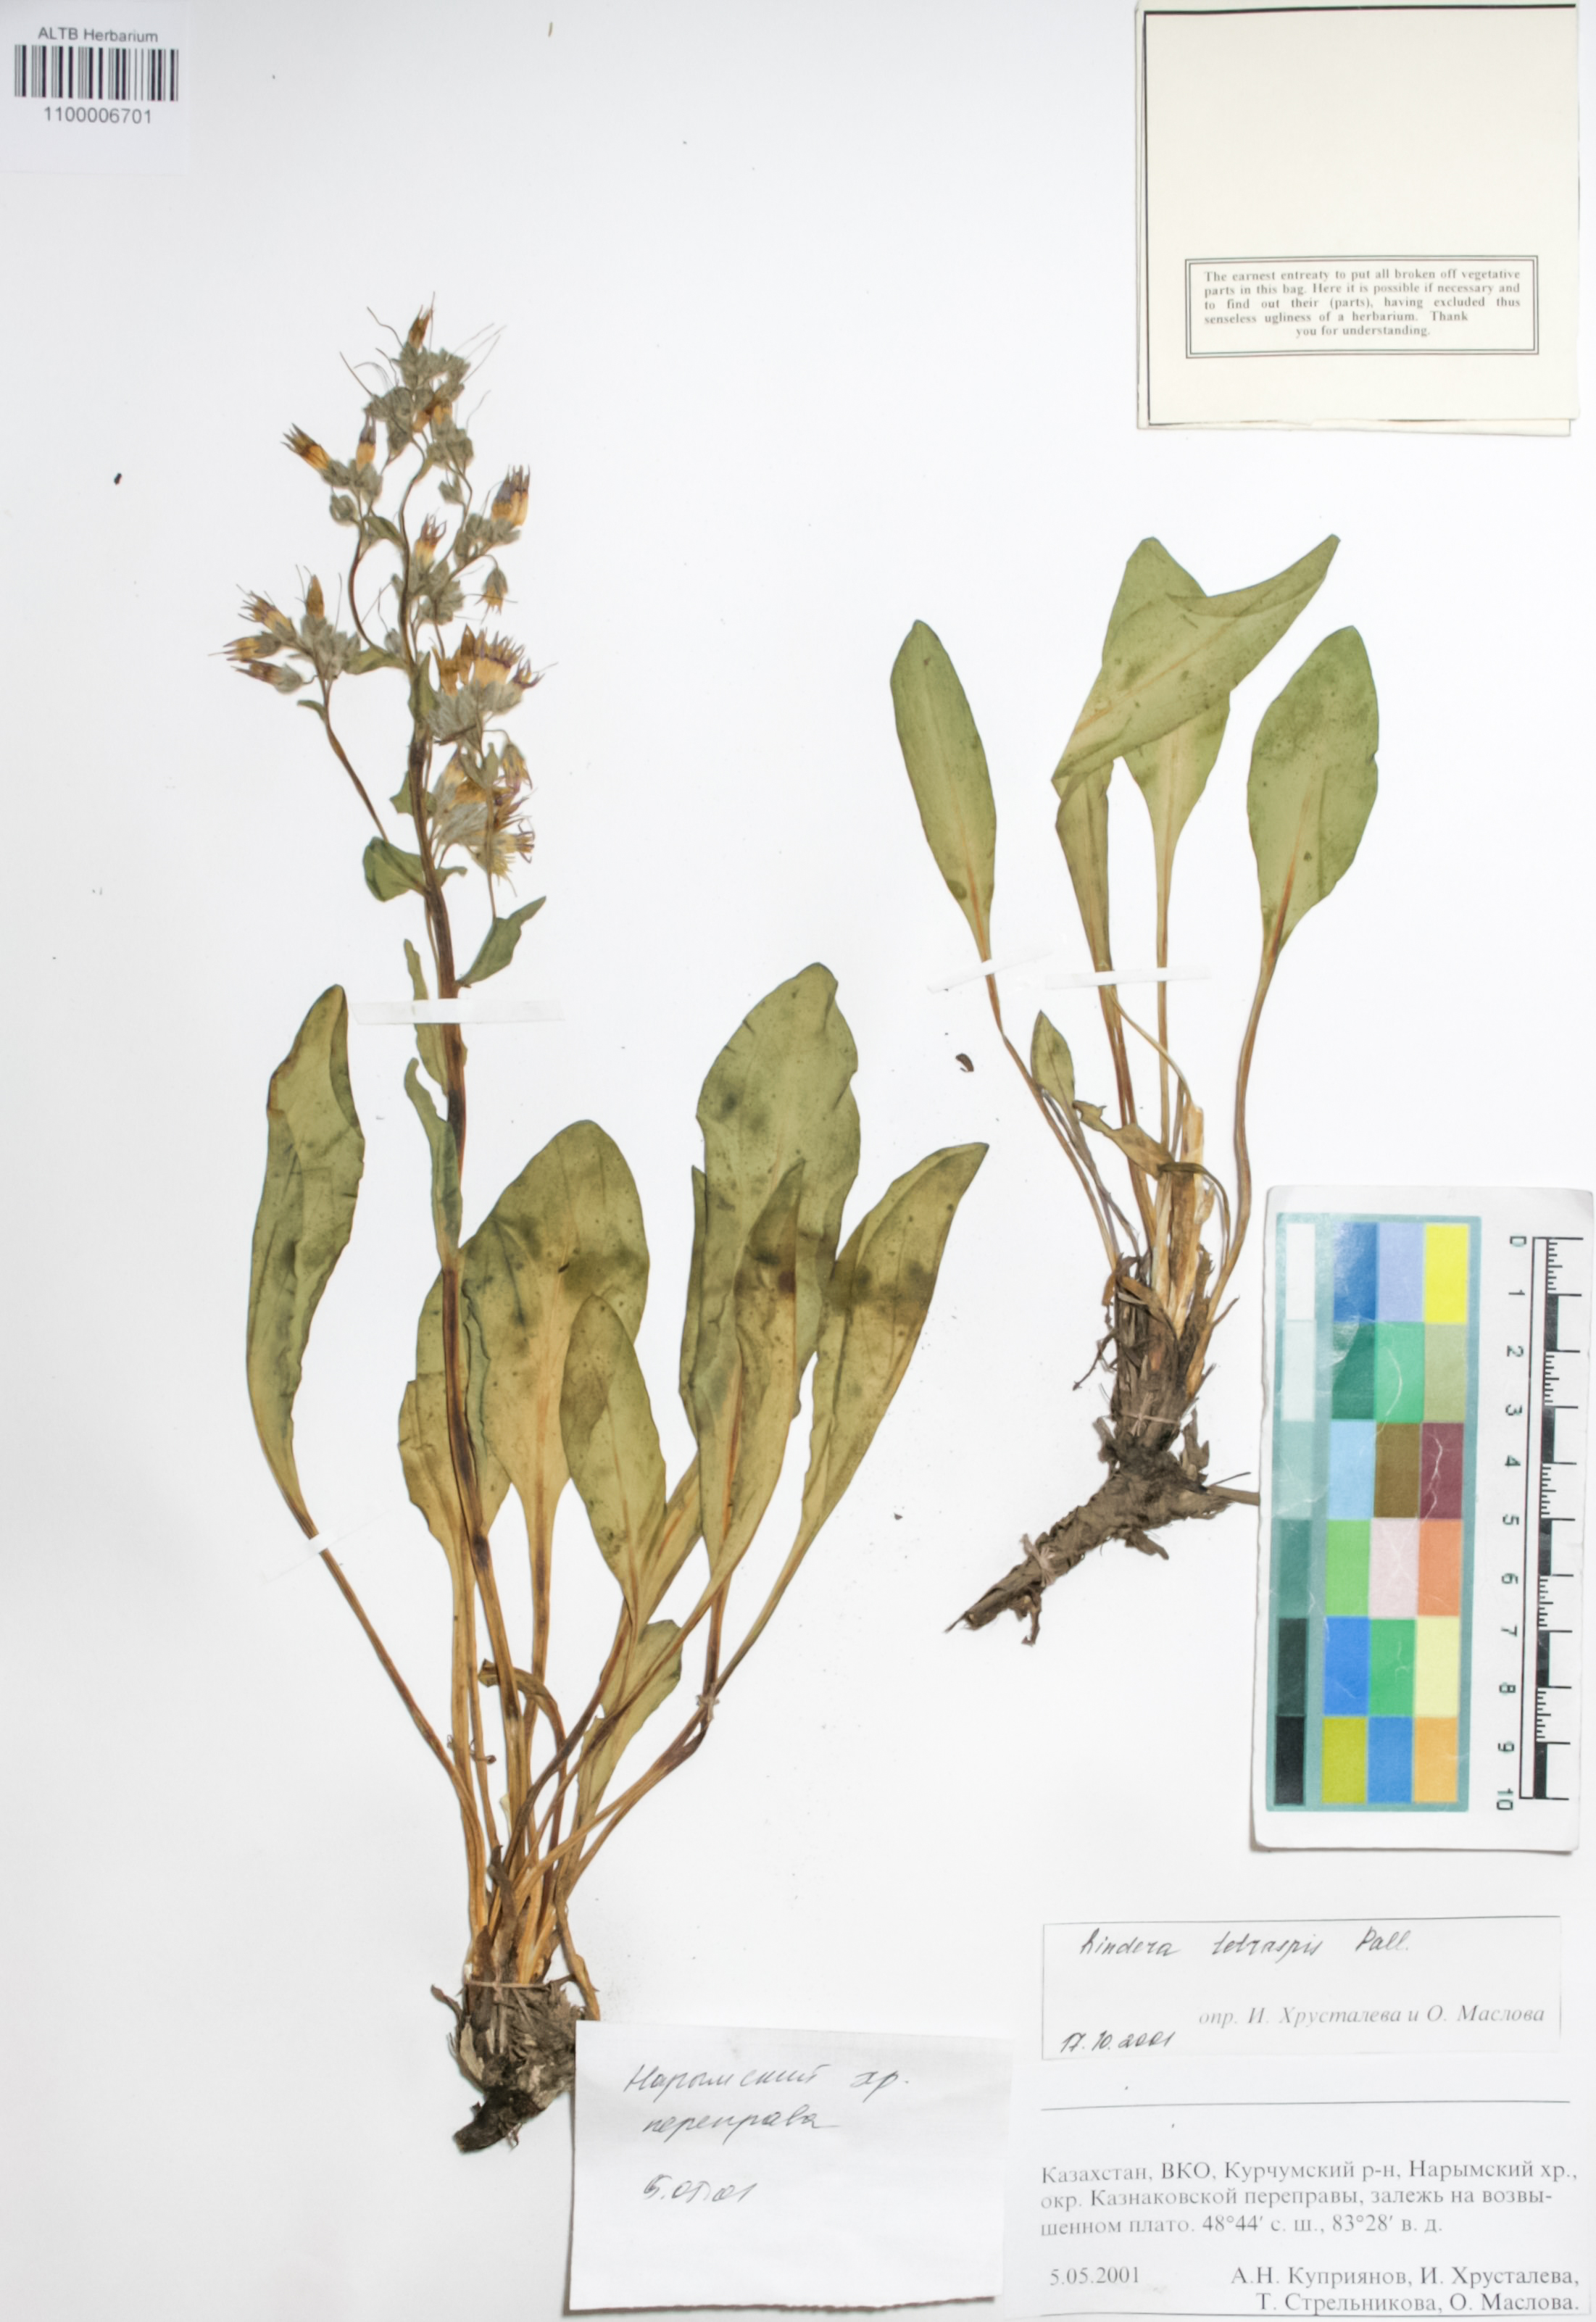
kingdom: Plantae
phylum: Tracheophyta
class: Magnoliopsida
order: Boraginales
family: Boraginaceae
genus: Rindera
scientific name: Rindera tetraspis
